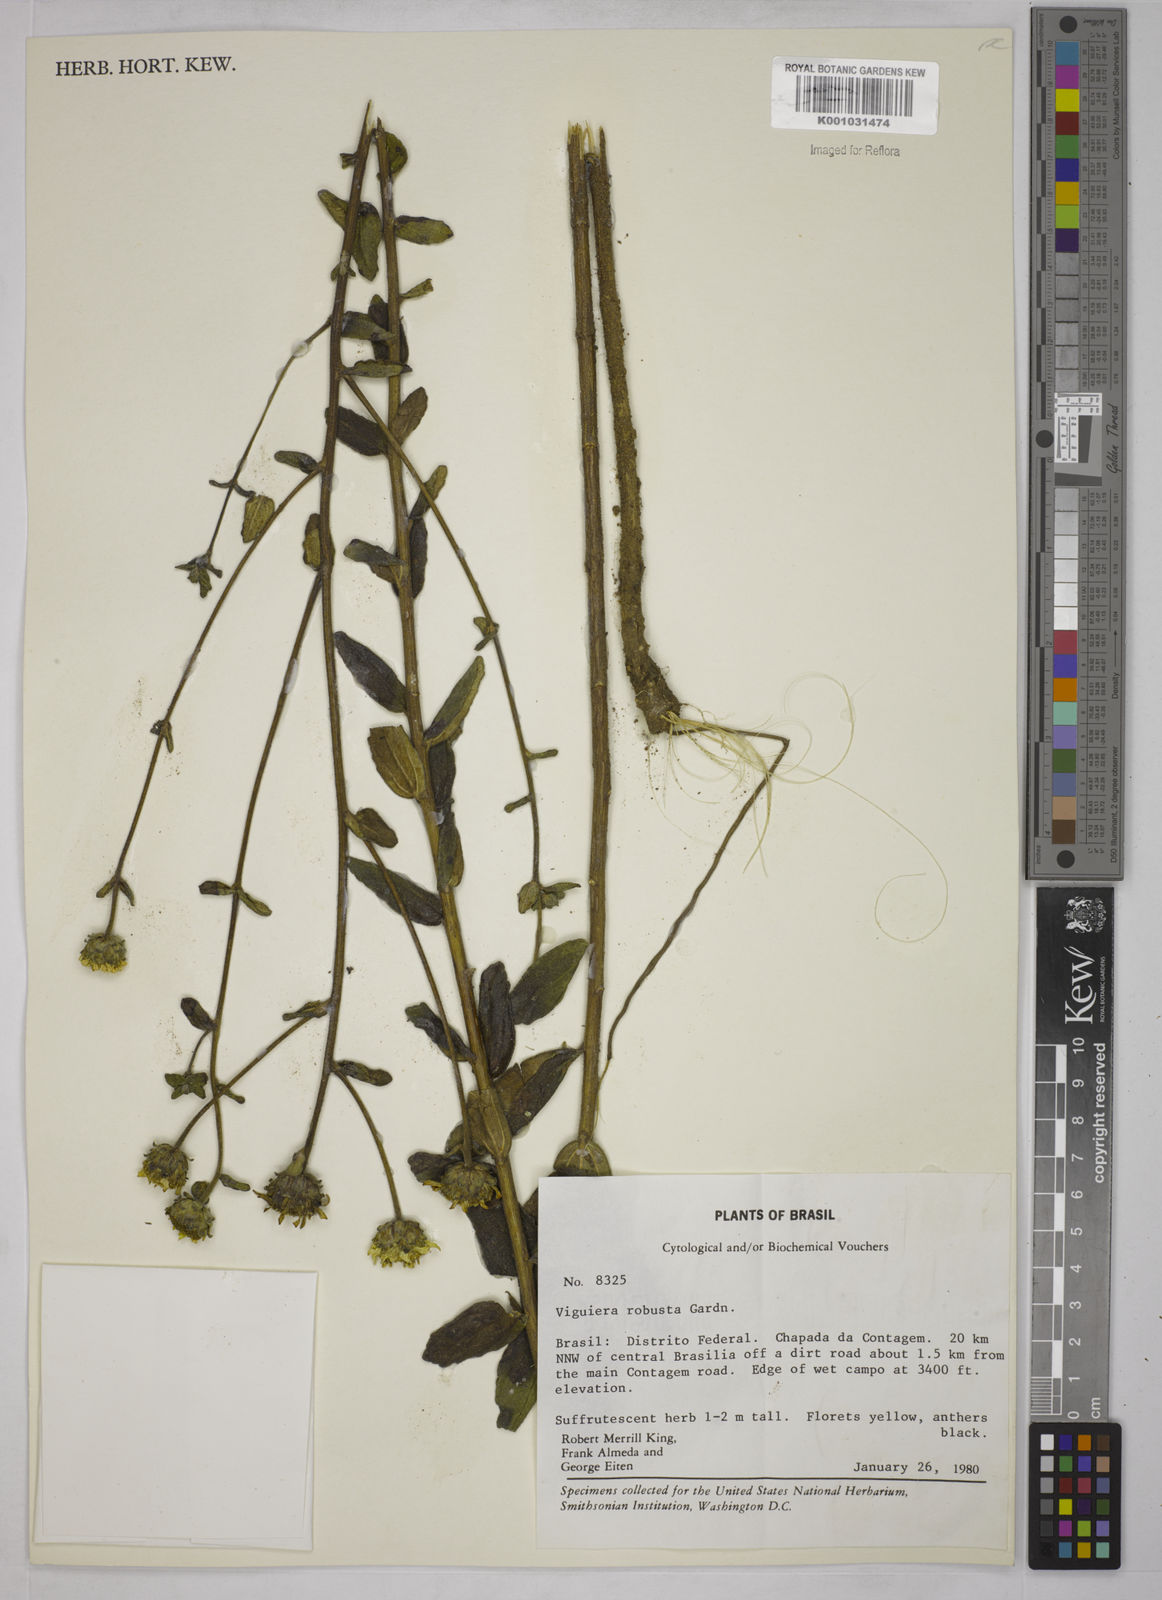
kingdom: Plantae
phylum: Tracheophyta
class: Magnoliopsida
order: Asterales
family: Asteraceae
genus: Aldama
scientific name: Aldama robusta
